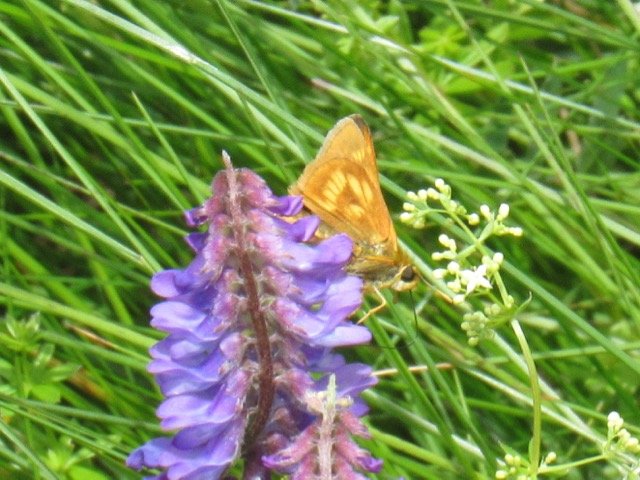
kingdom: Animalia
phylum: Arthropoda
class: Insecta
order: Lepidoptera
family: Hesperiidae
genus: Polites
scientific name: Polites
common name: Long Dash Skipper
